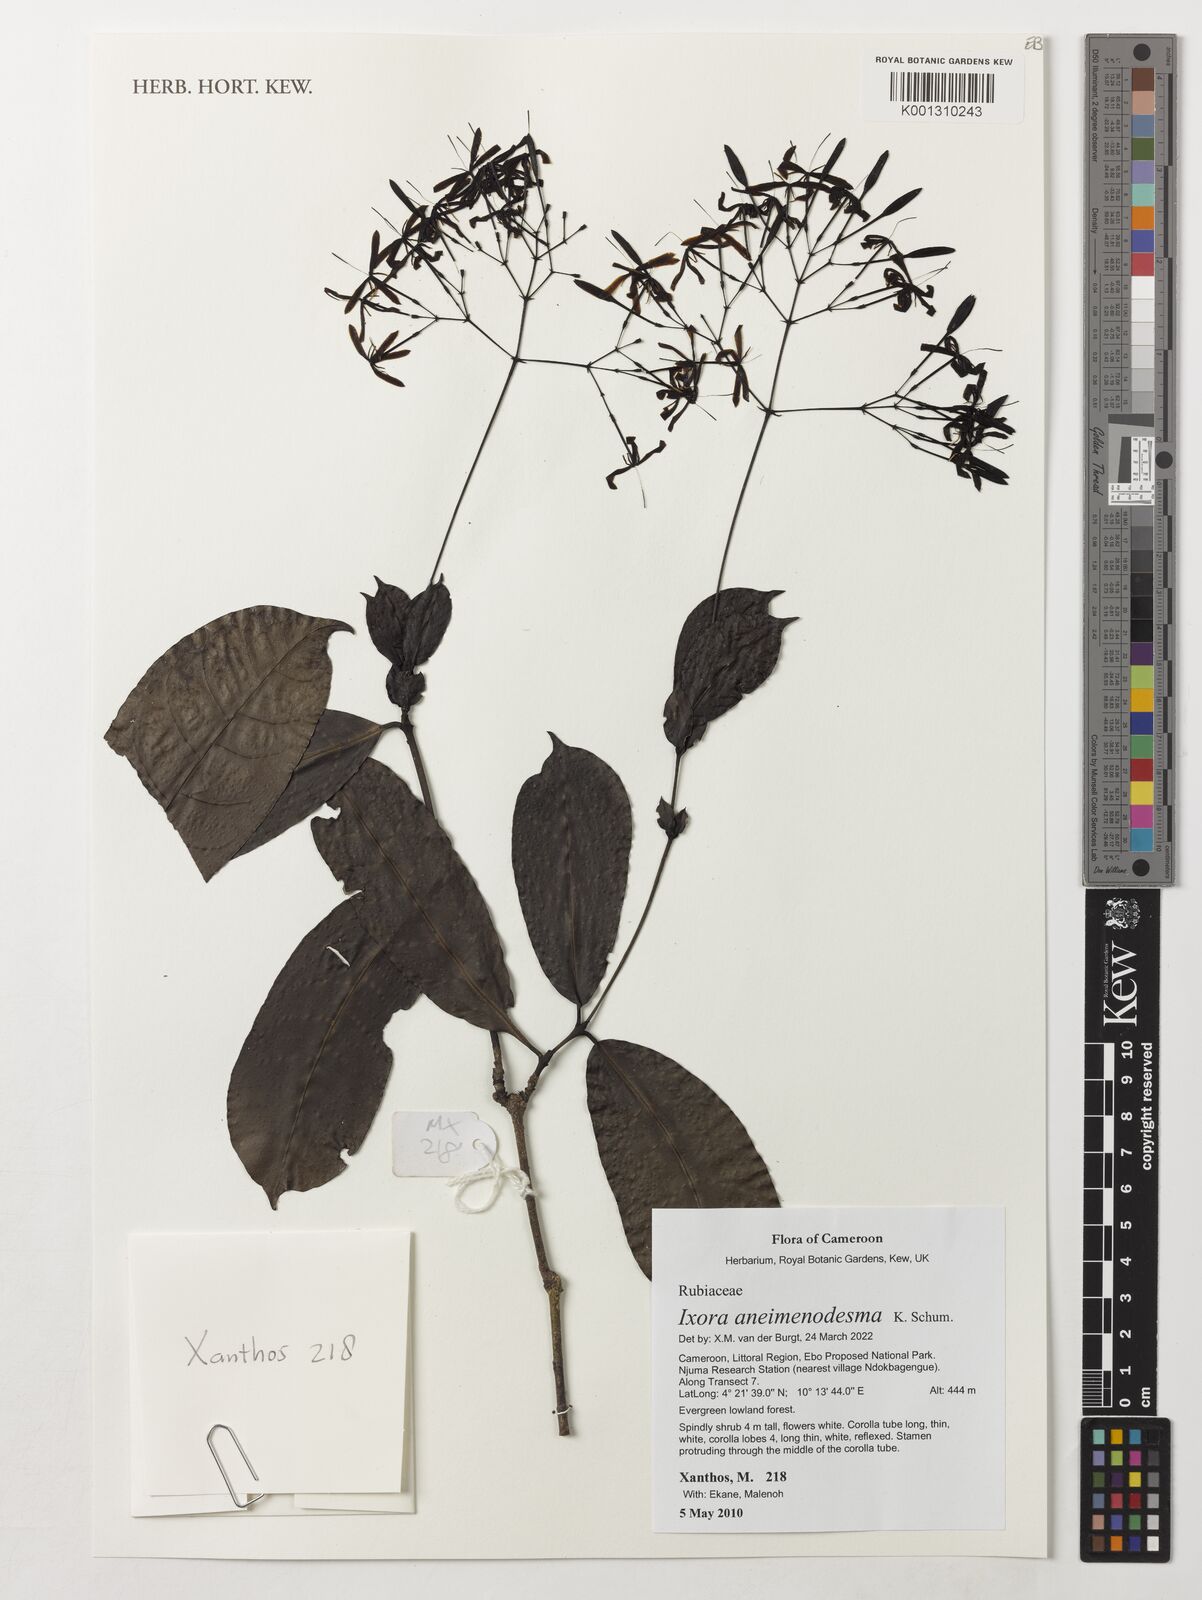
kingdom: Plantae
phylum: Tracheophyta
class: Magnoliopsida
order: Gentianales
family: Rubiaceae
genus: Ixora
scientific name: Ixora aneimenodesma
